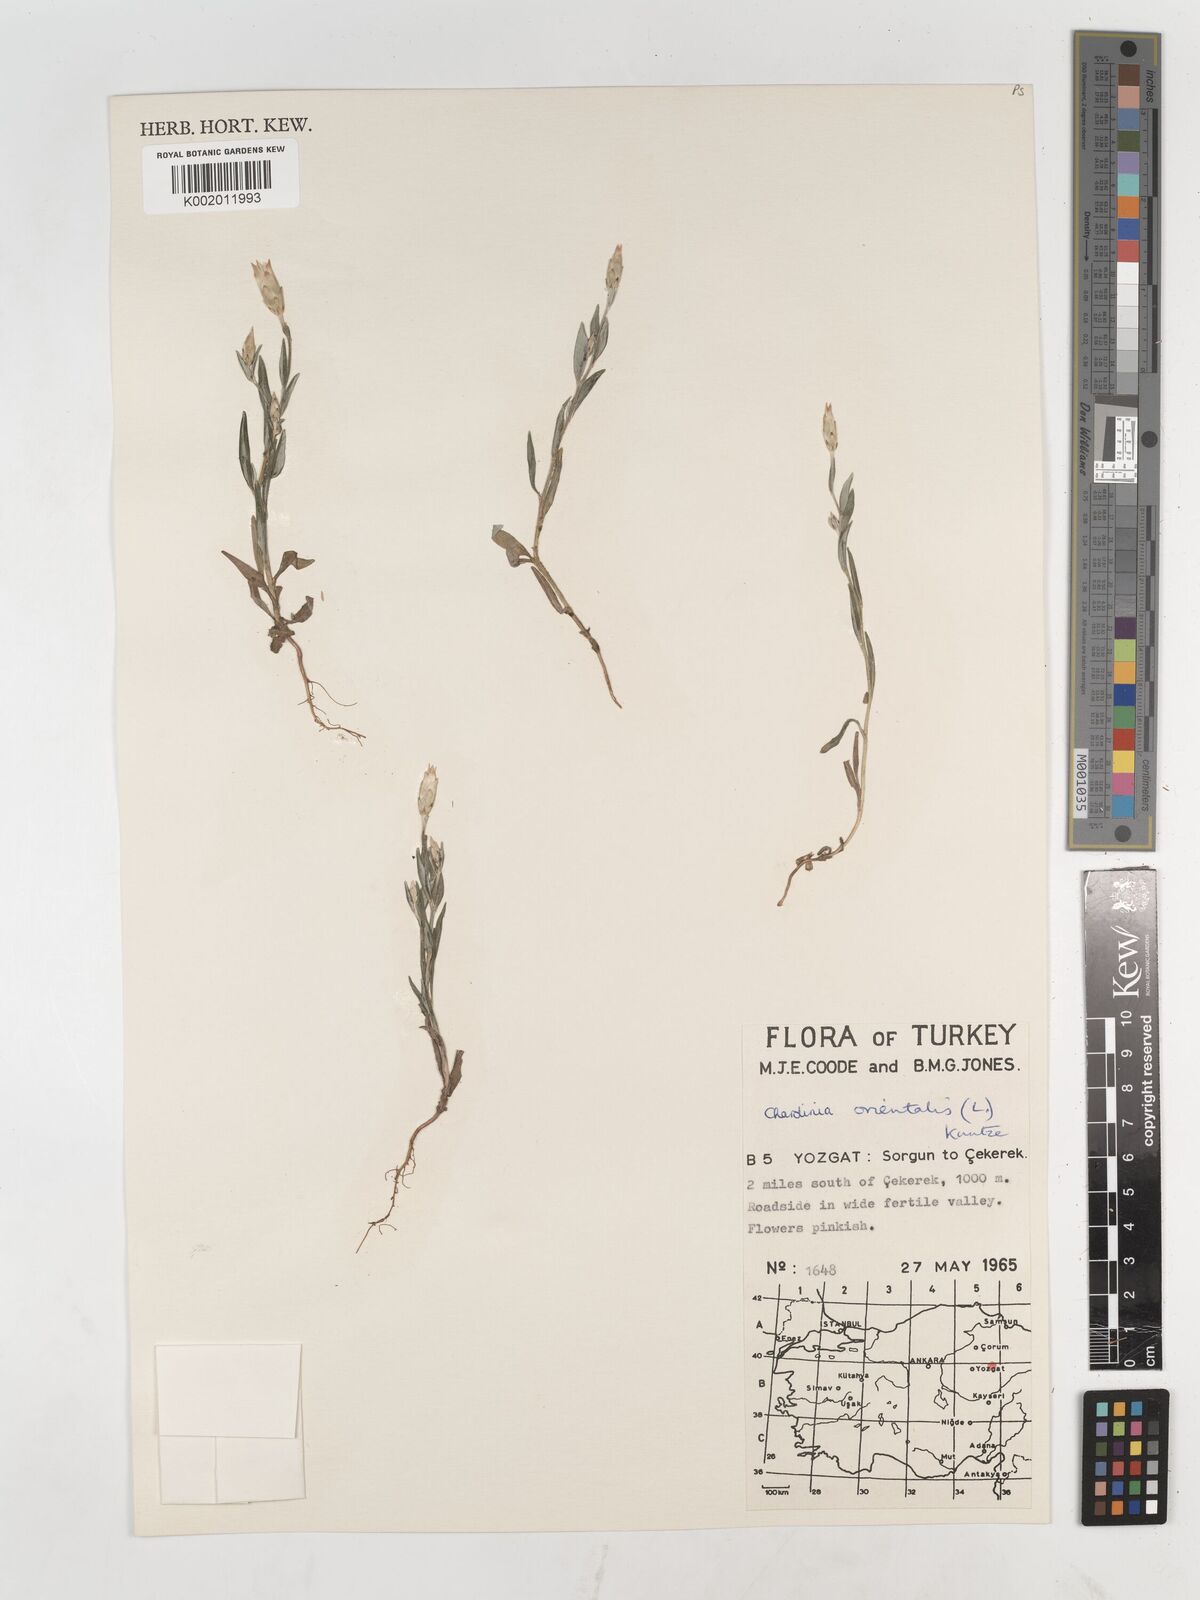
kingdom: Plantae
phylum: Tracheophyta
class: Magnoliopsida
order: Asterales
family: Asteraceae
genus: Chardinia
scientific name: Chardinia orientalis
